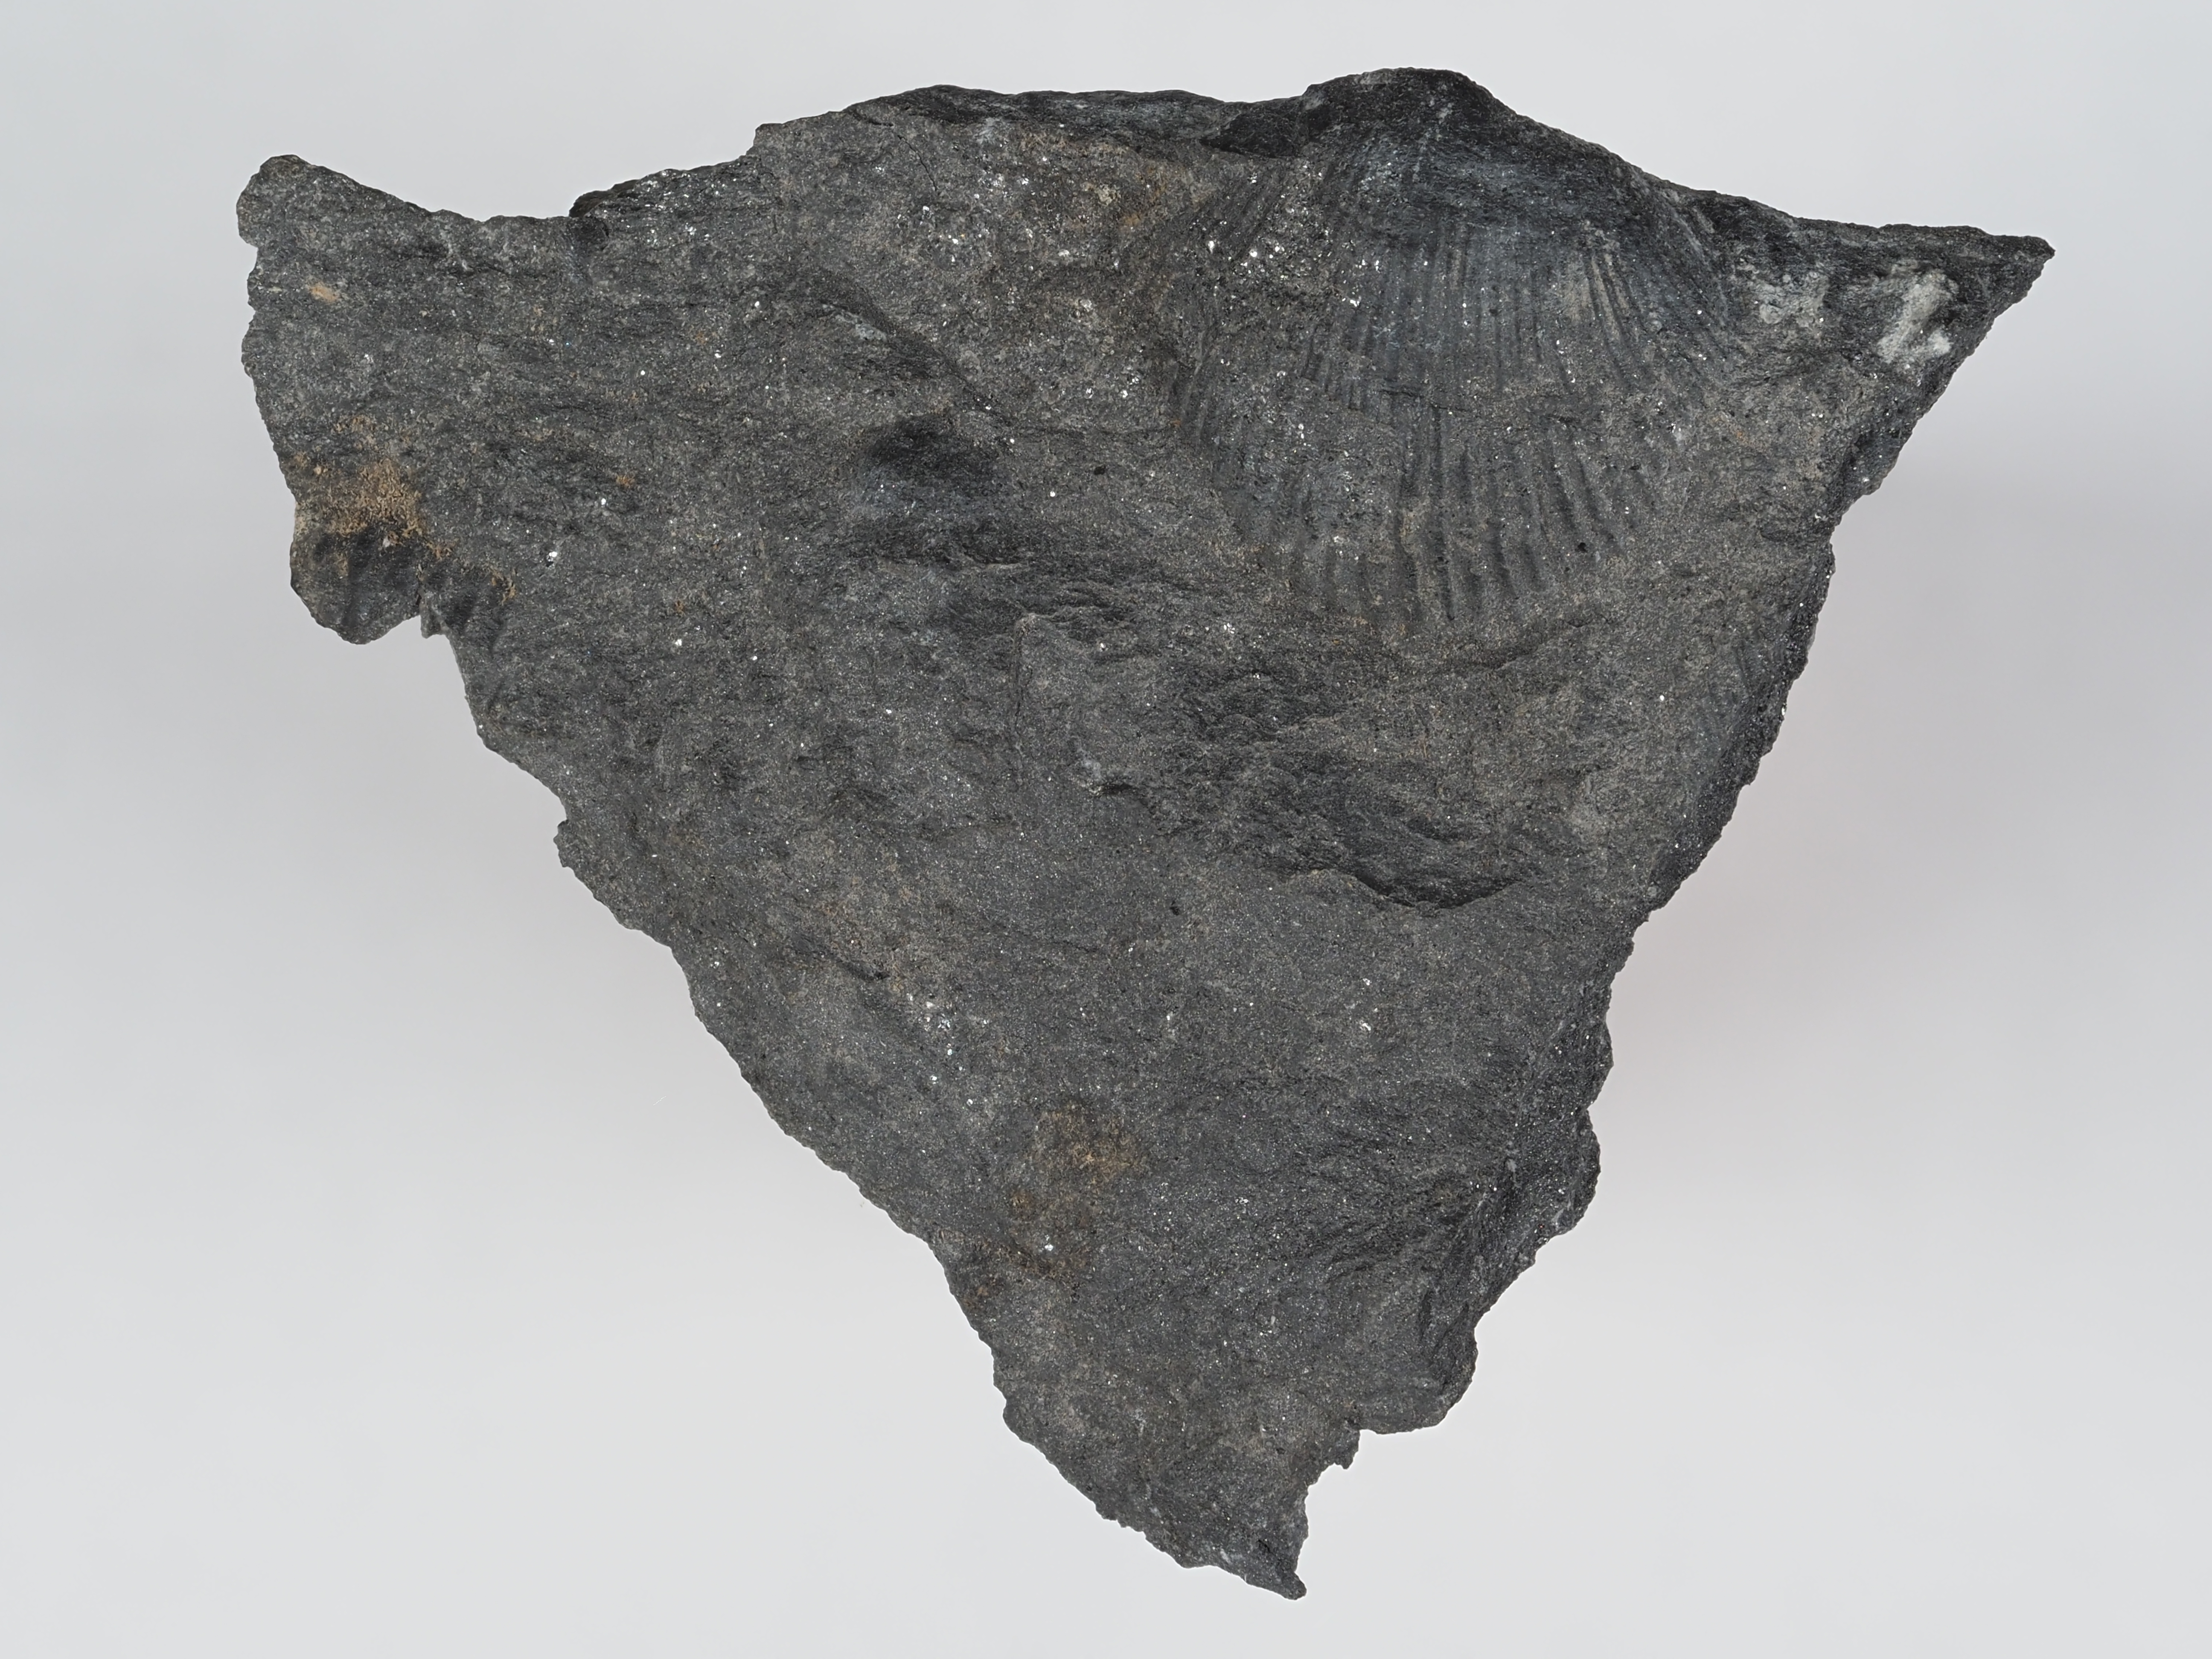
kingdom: Animalia
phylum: Brachiopoda
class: Rhynchonellata
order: Terebratulida
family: Mutationellidae
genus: Mutationella
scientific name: Mutationella
